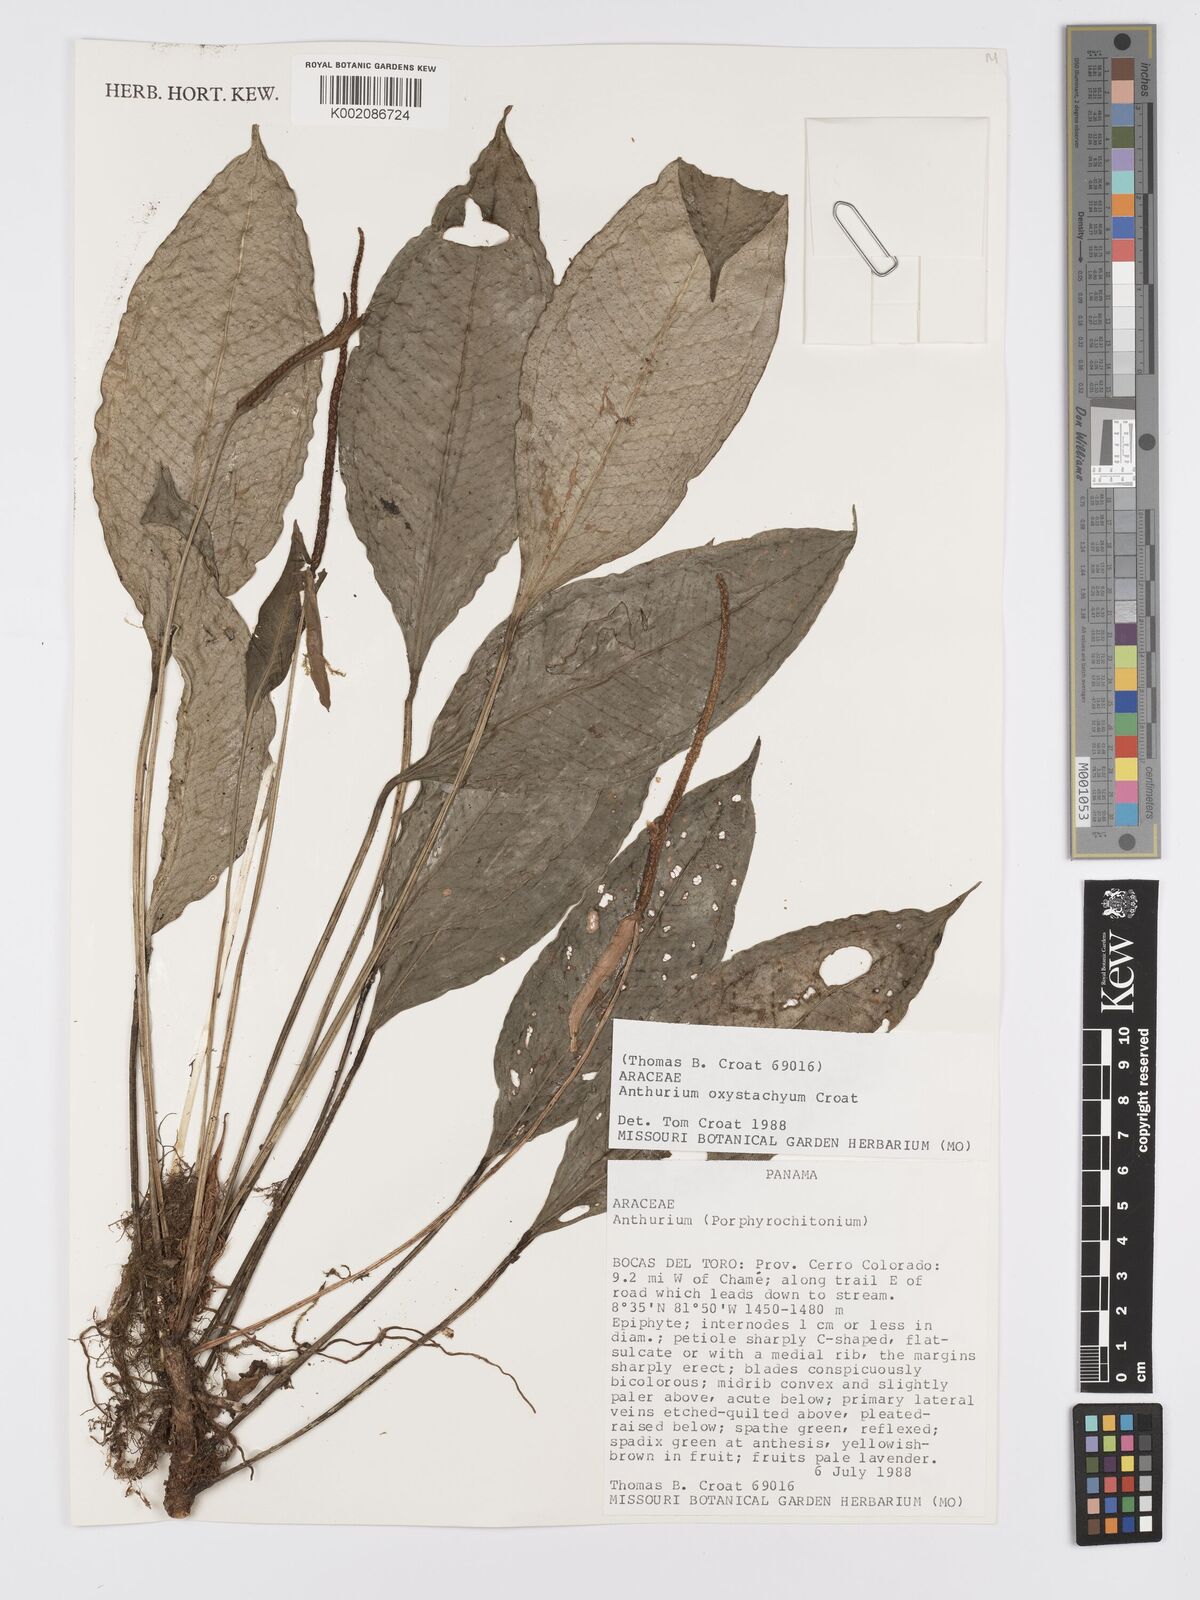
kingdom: Plantae
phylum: Tracheophyta
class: Liliopsida
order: Alismatales
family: Araceae
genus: Anthurium
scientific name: Anthurium oxystachyum
